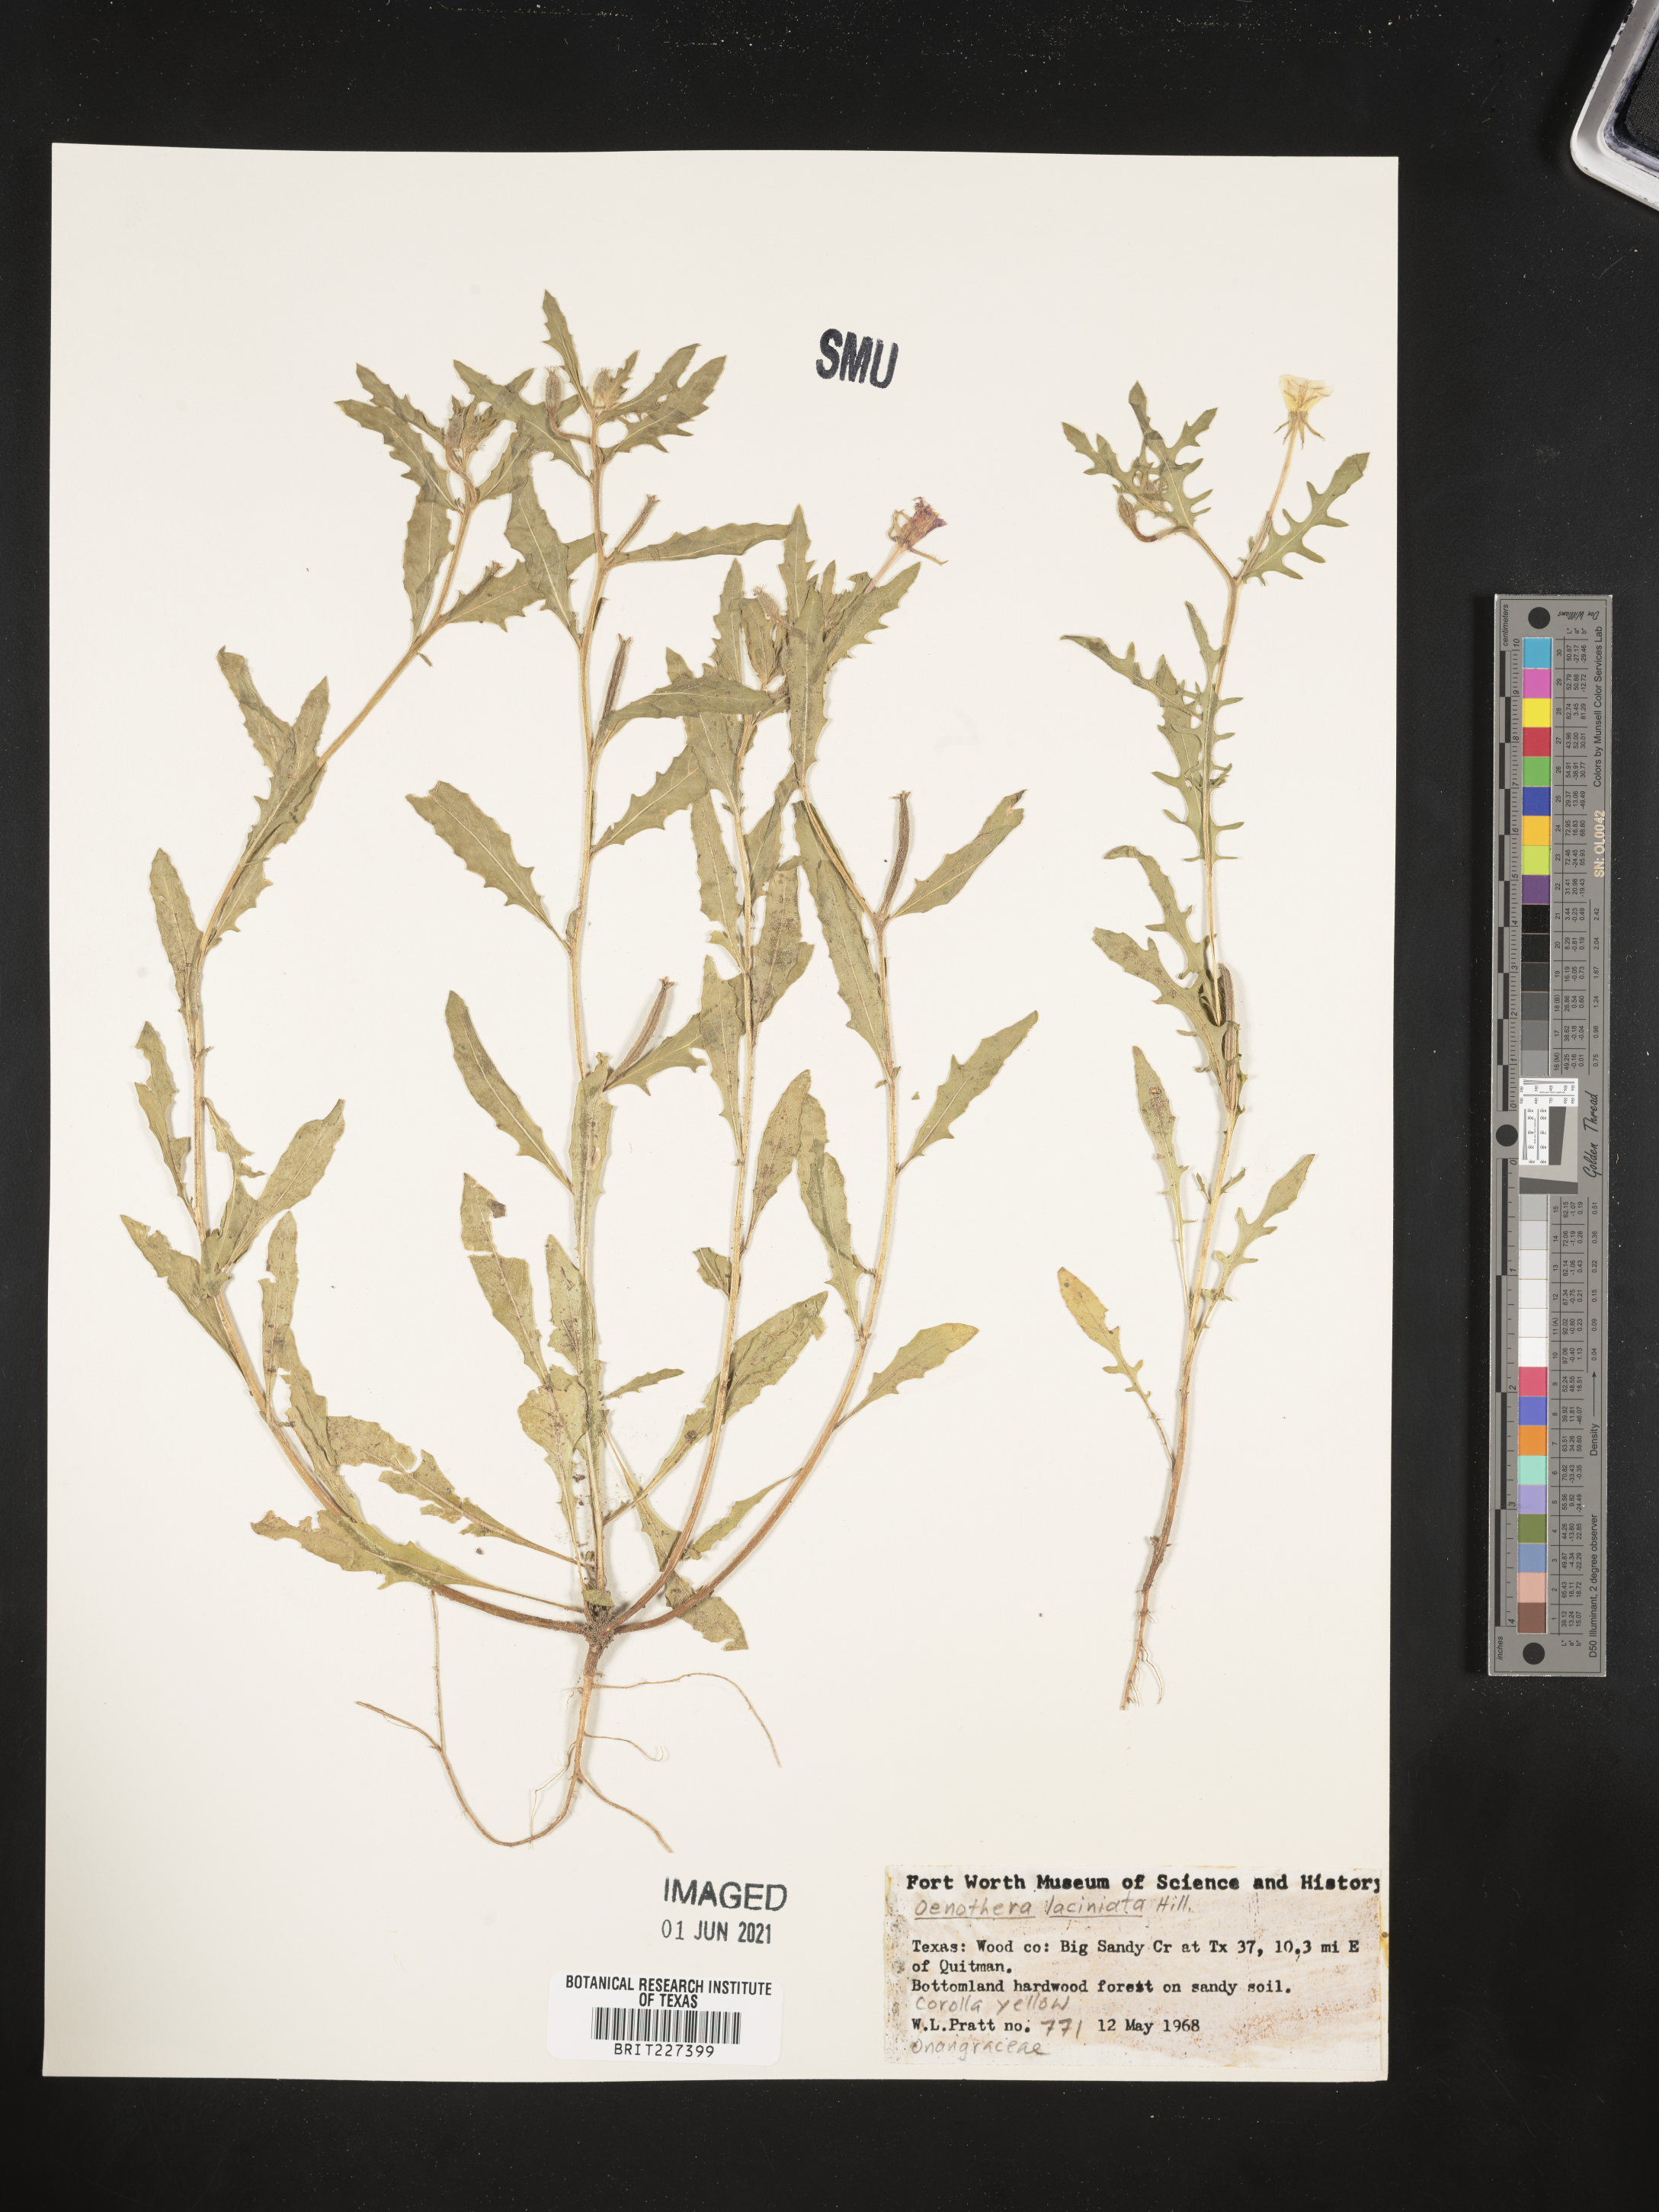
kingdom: Plantae
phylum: Tracheophyta
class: Magnoliopsida
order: Myrtales
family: Onagraceae
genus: Oenothera
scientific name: Oenothera laciniata
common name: Cut-leaved evening-primrose
